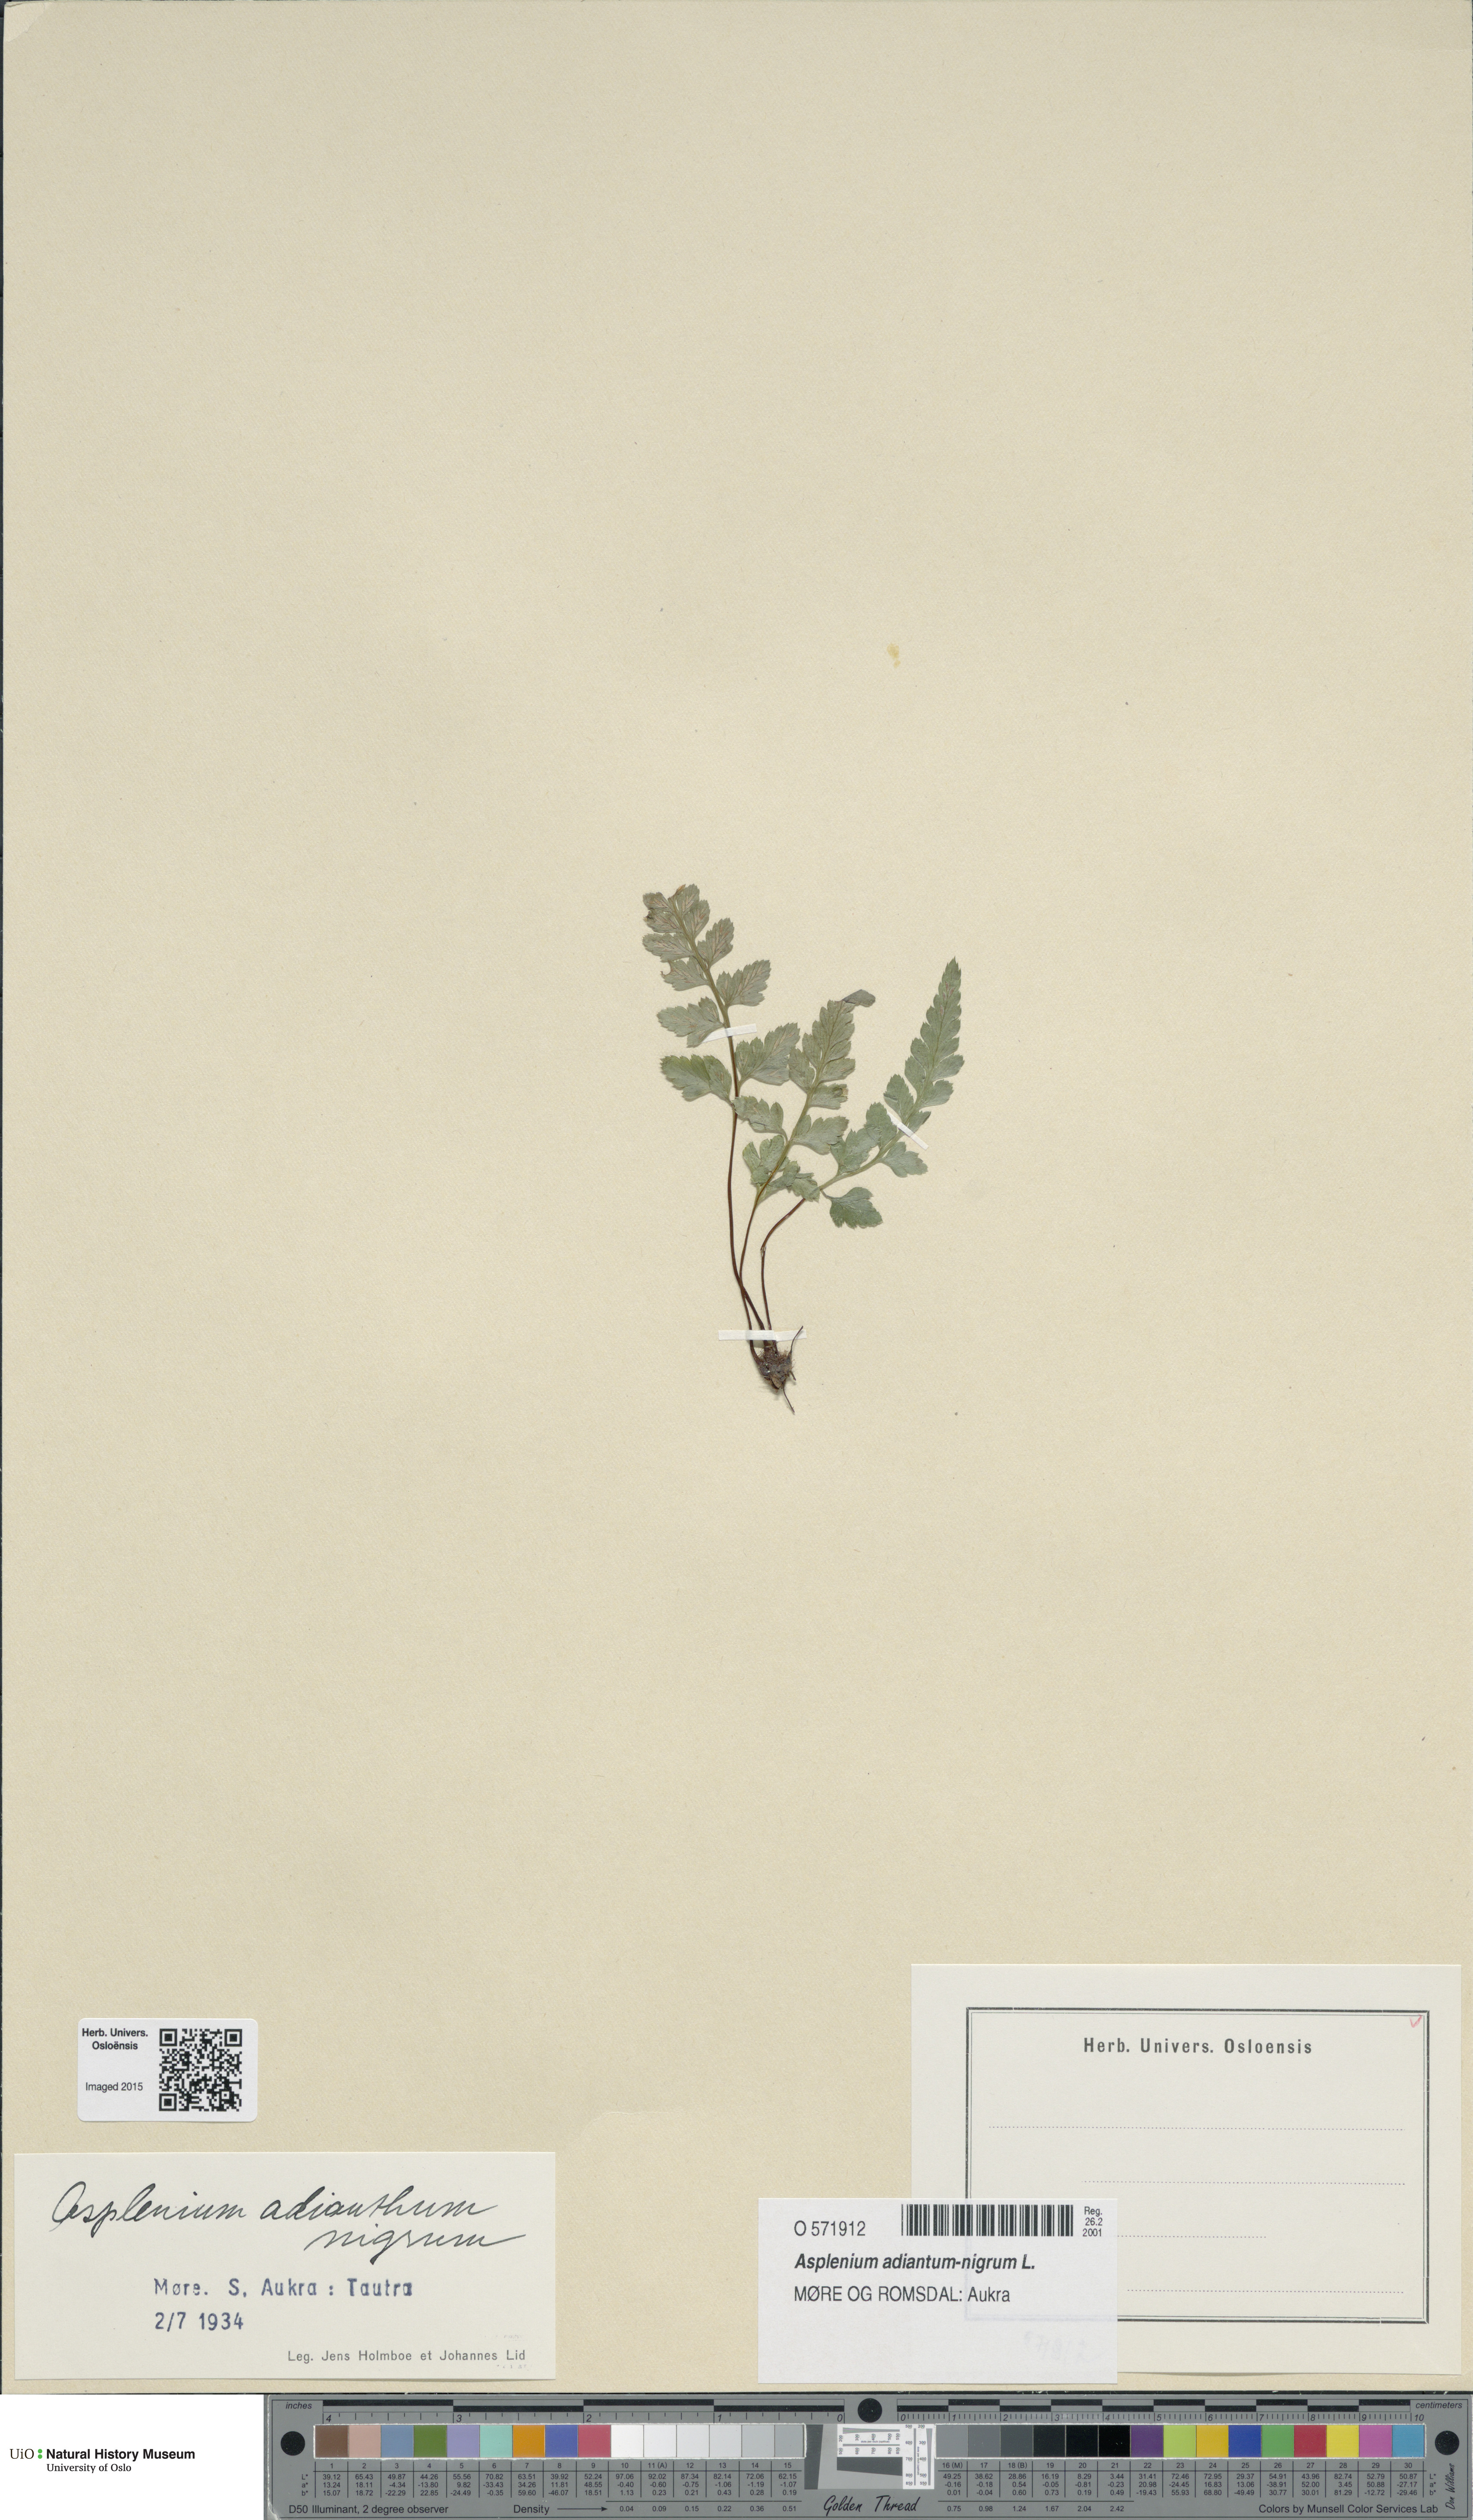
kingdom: Plantae
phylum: Tracheophyta
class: Polypodiopsida
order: Polypodiales
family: Aspleniaceae
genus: Asplenium
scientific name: Asplenium adiantum-nigrum
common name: Black spleenwort
